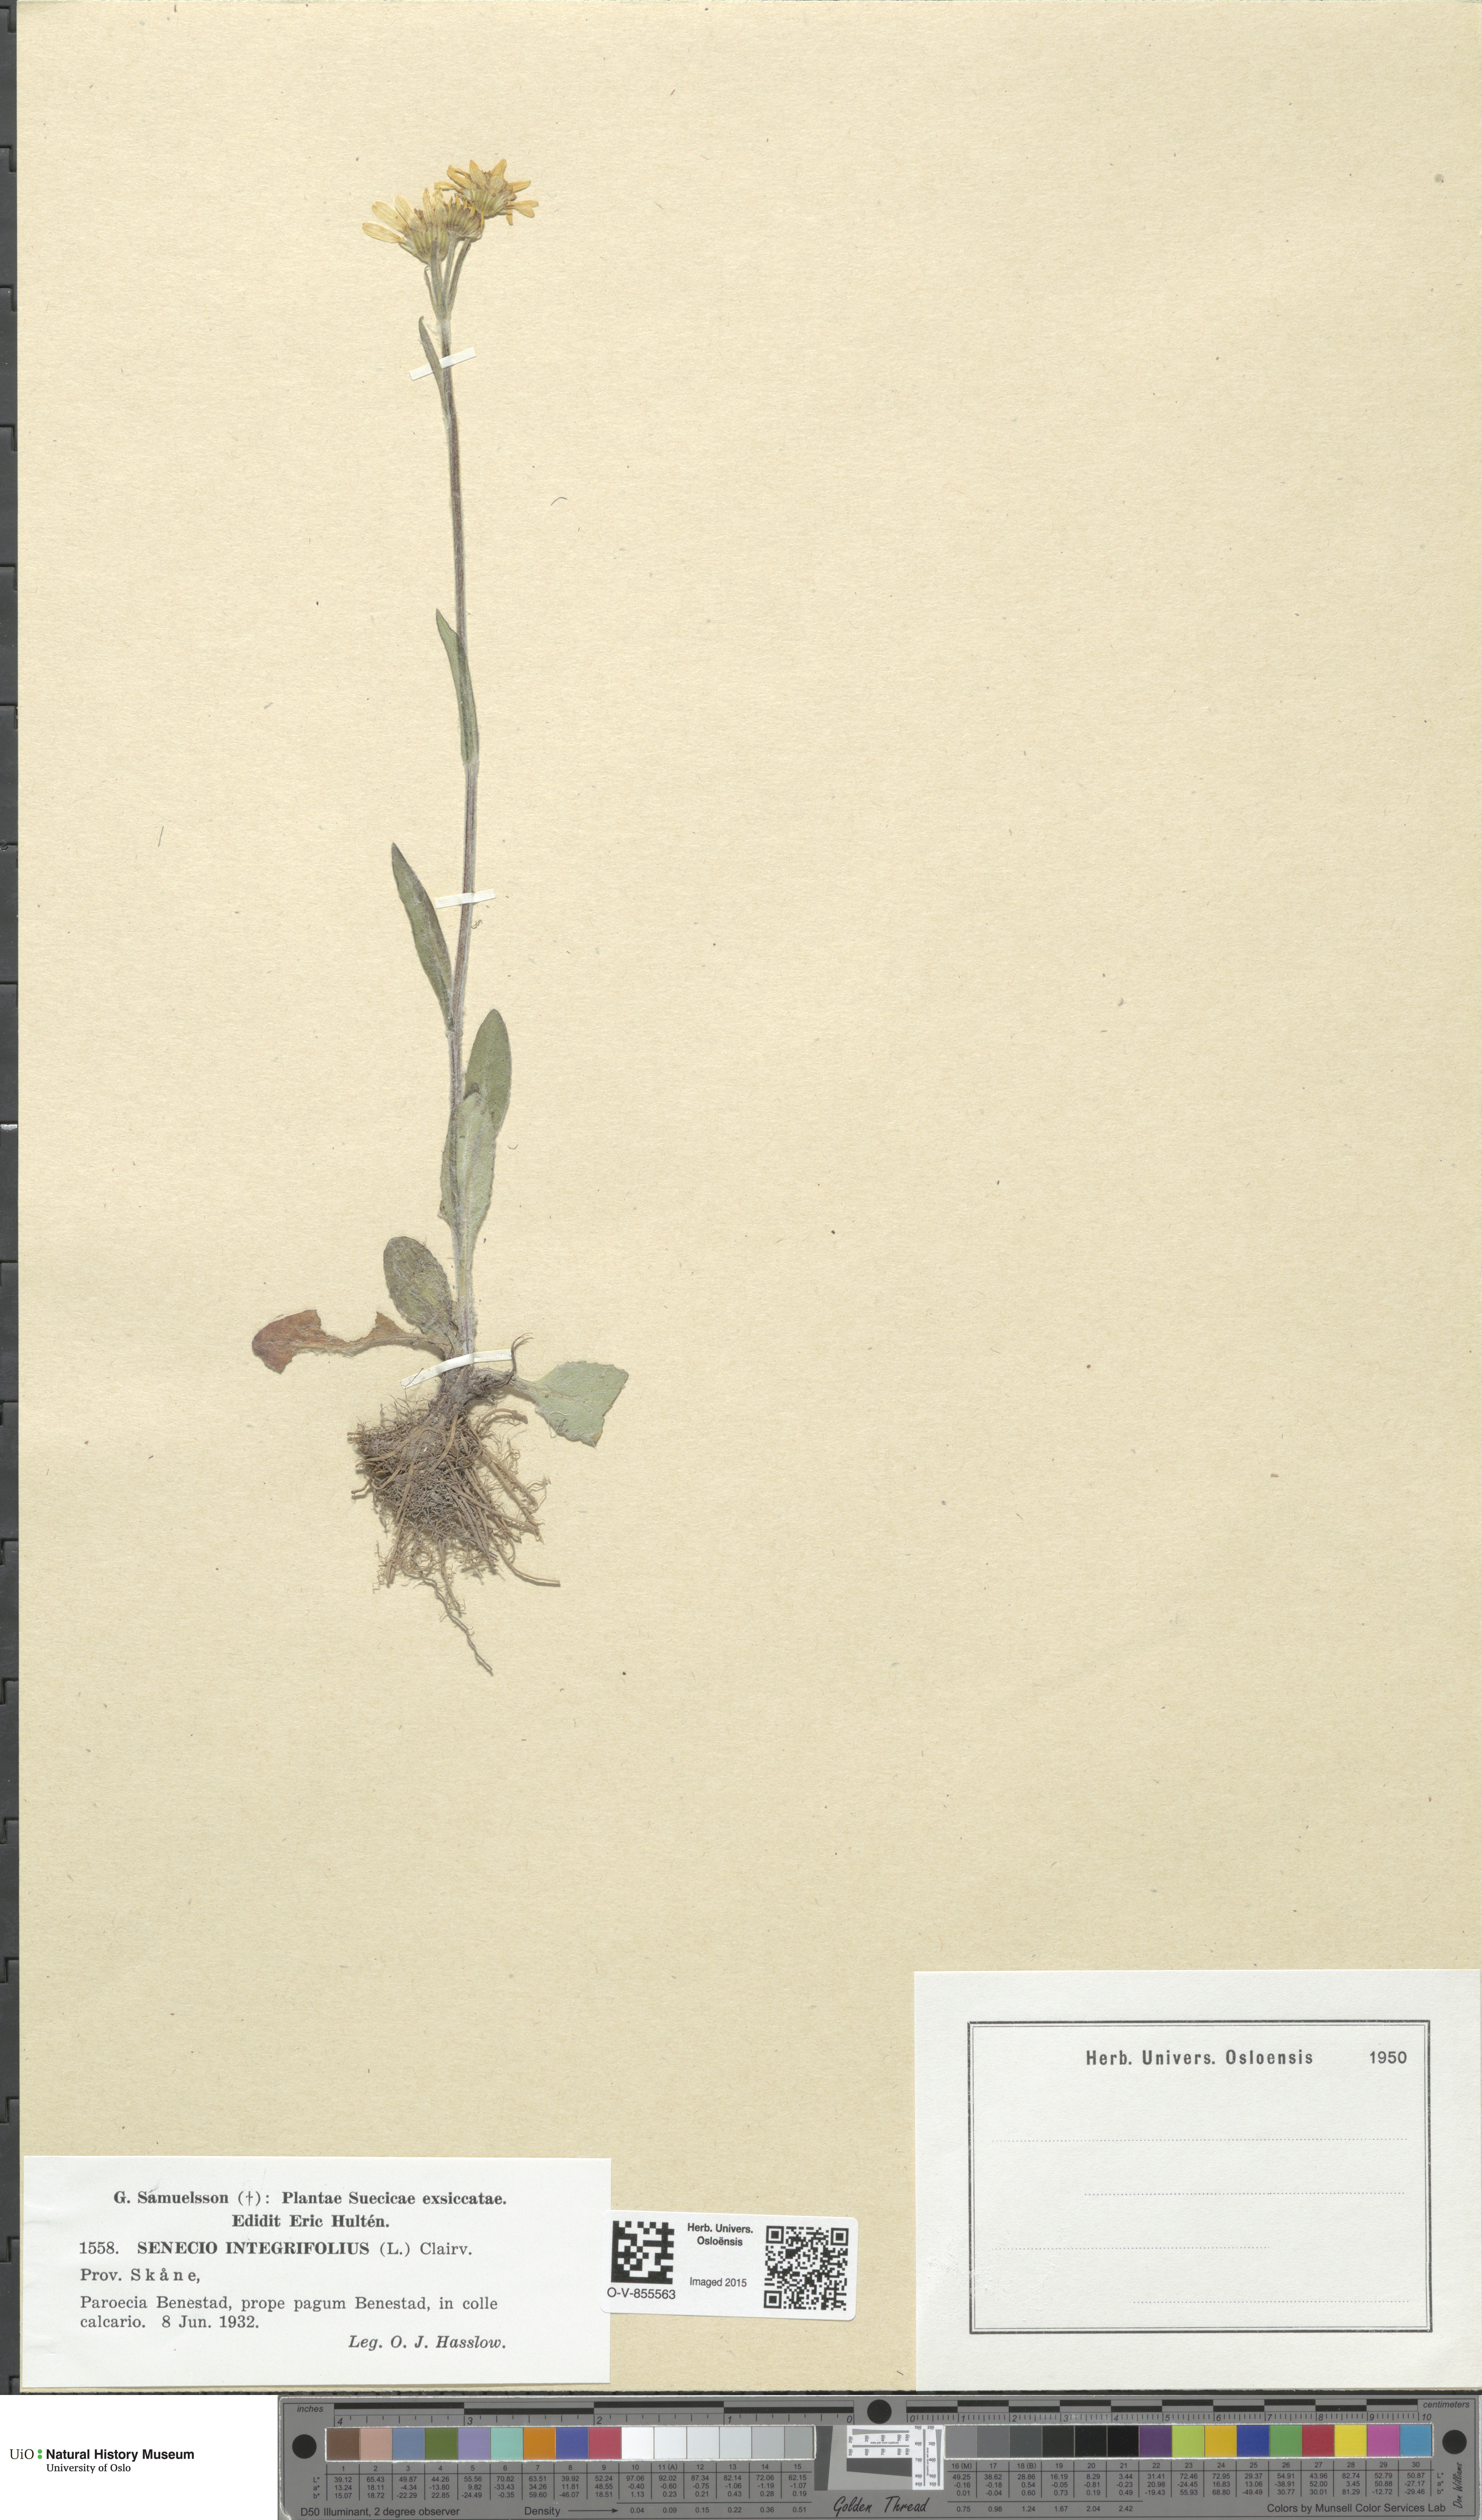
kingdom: Plantae
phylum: Tracheophyta
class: Magnoliopsida
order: Asterales
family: Asteraceae
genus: Tephroseris
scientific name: Tephroseris integrifolia
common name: Field fleawort
